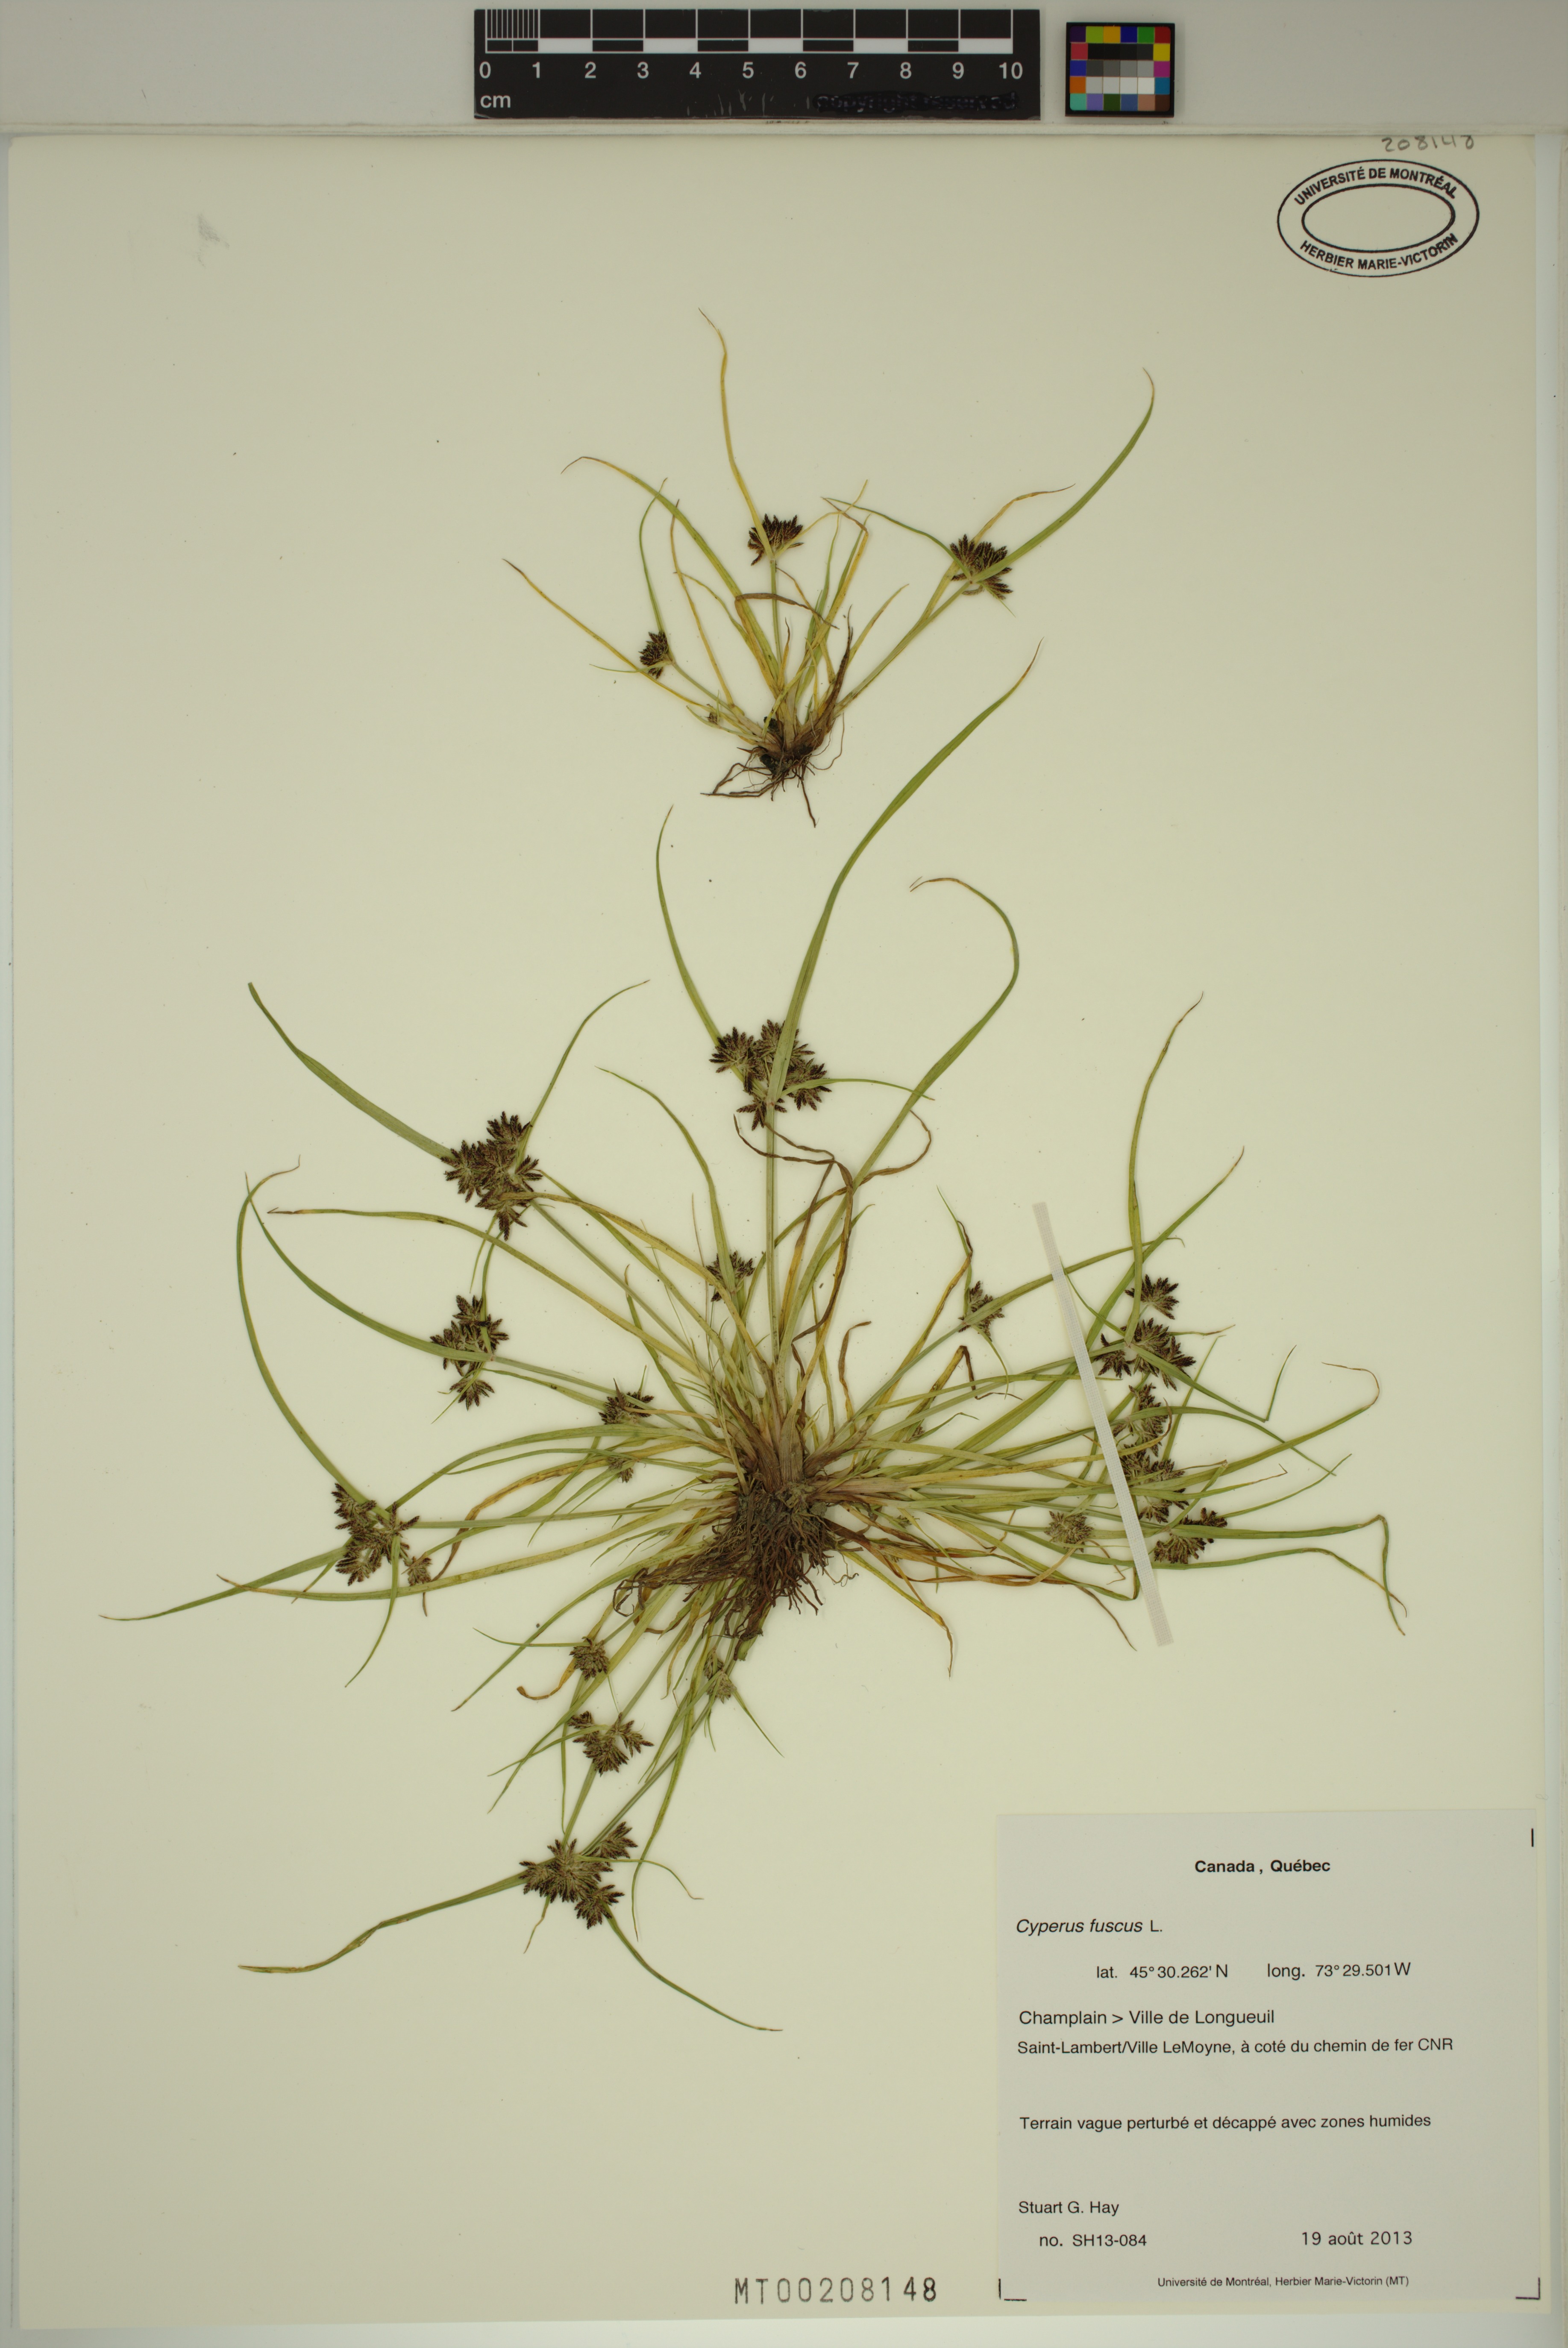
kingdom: Plantae
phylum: Tracheophyta
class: Liliopsida
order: Poales
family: Cyperaceae
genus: Cyperus
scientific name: Cyperus fuscus
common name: Brown galingale
